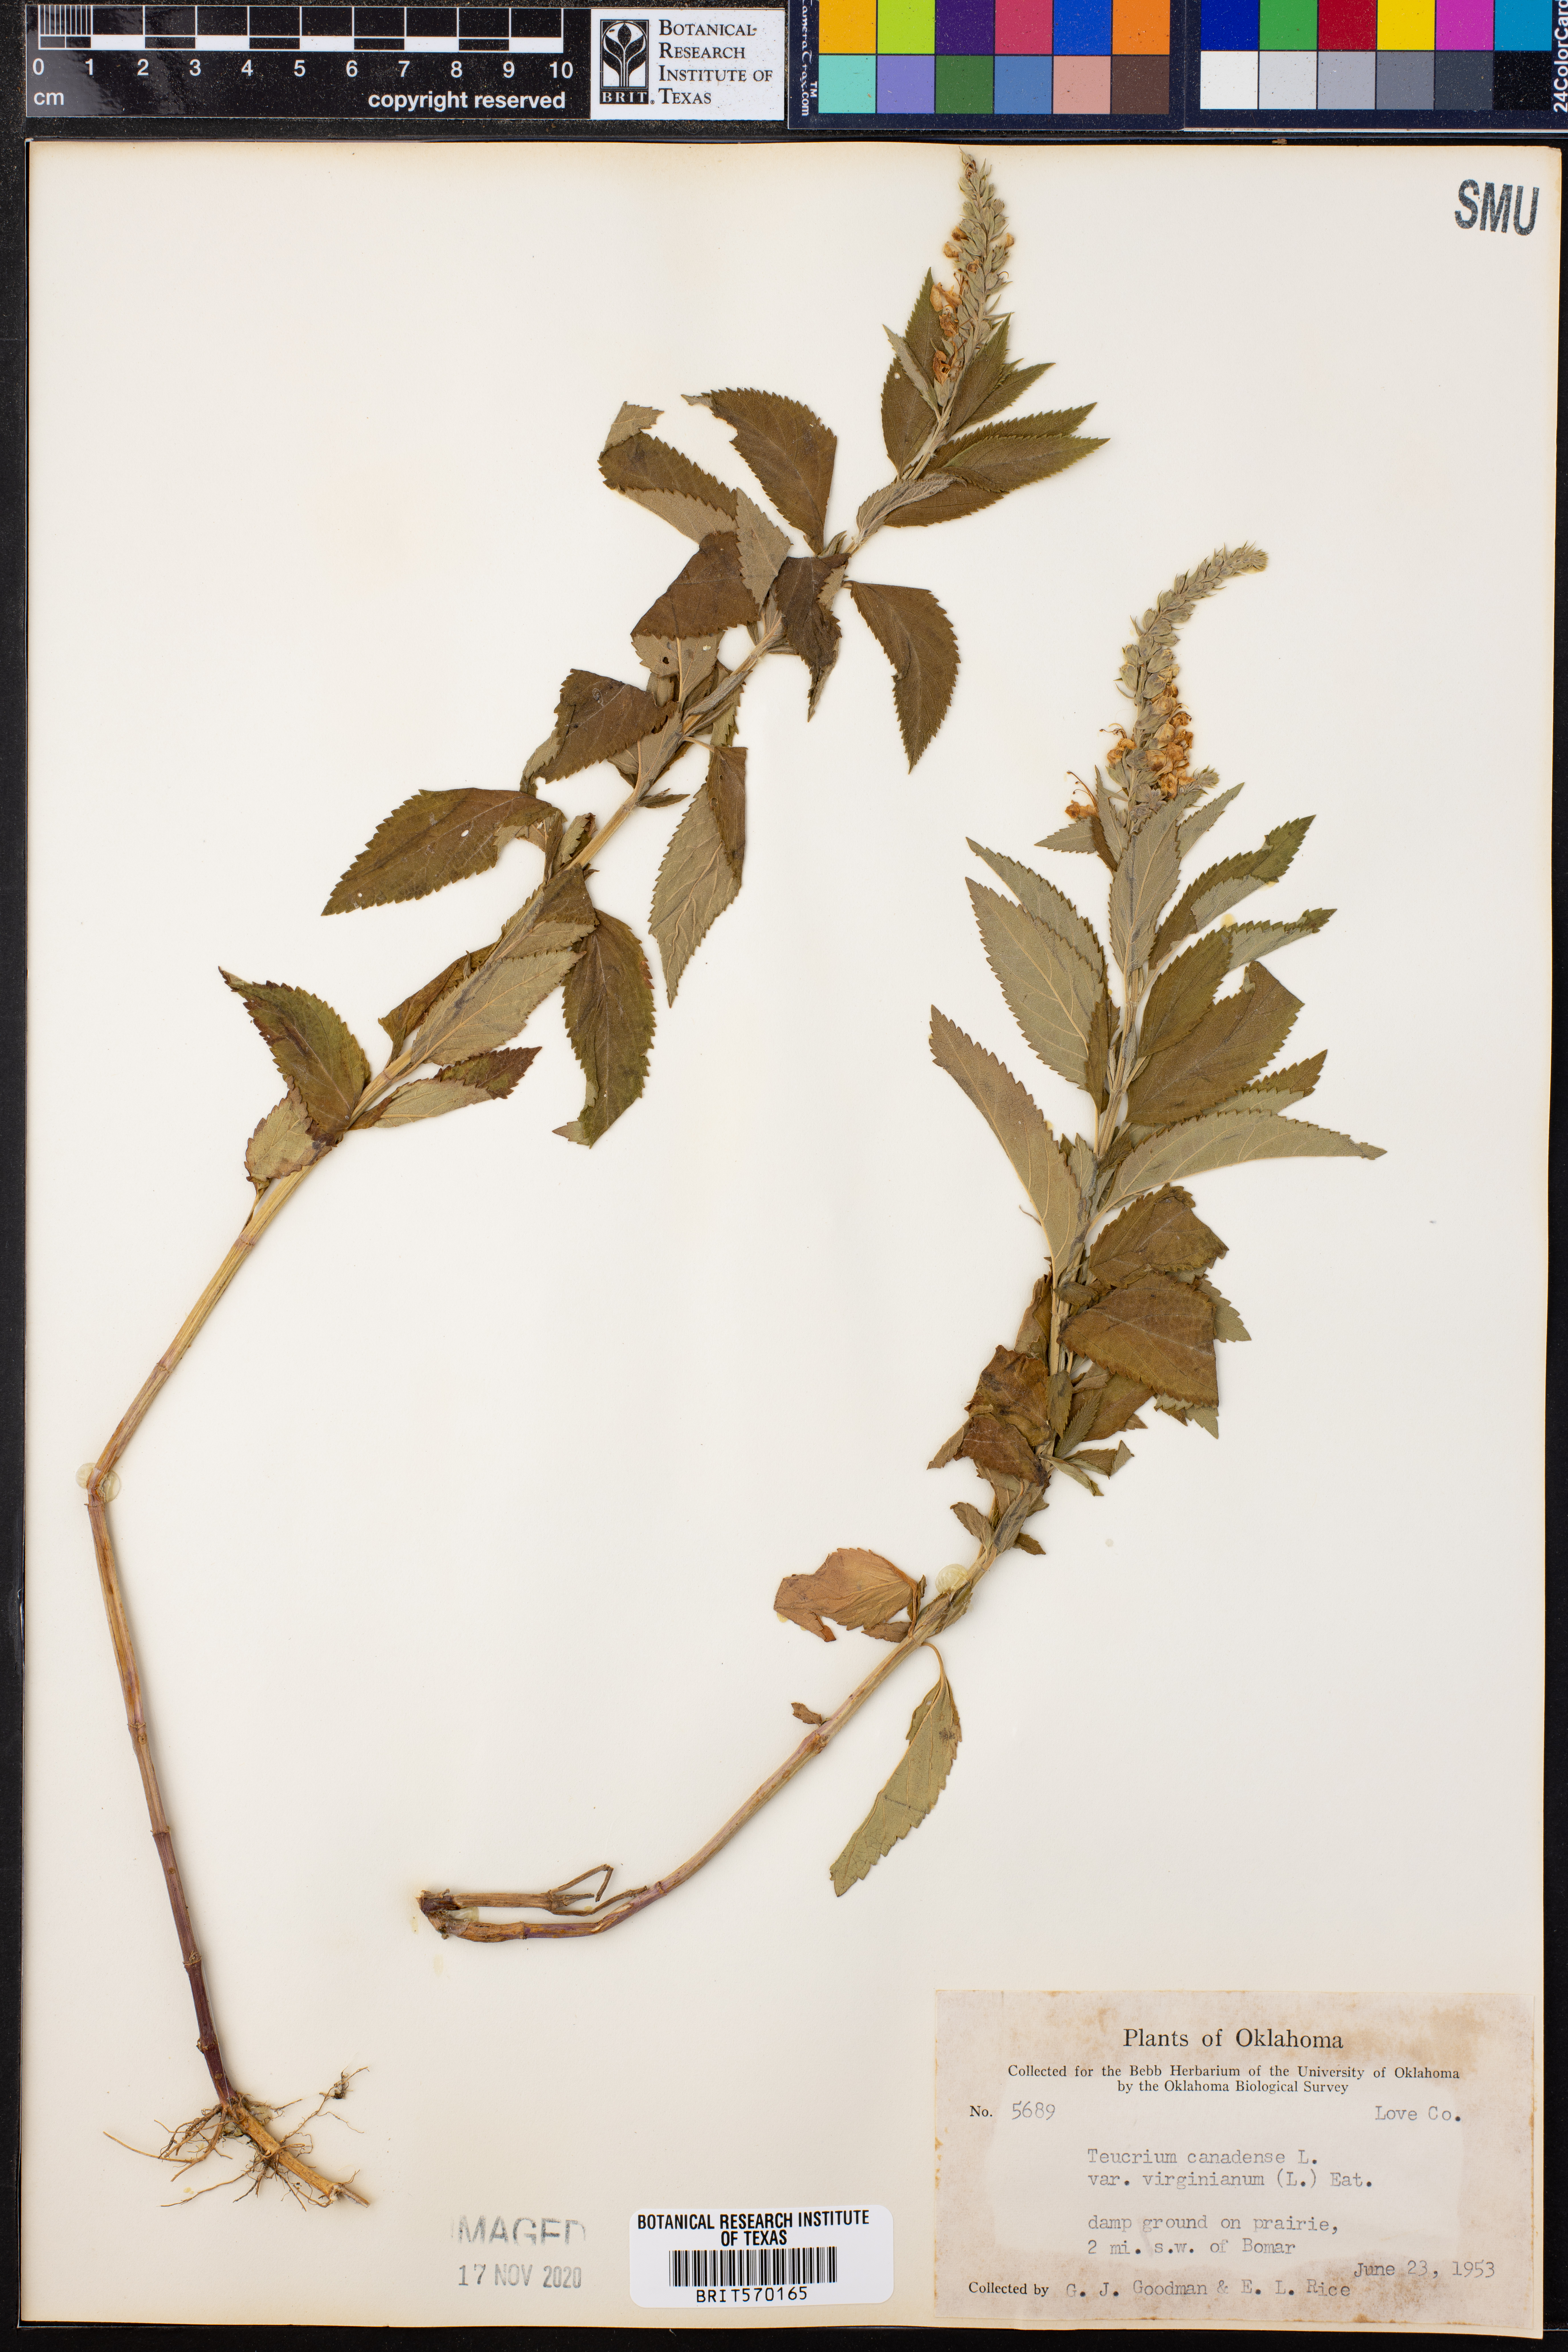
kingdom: Plantae
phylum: Tracheophyta
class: Magnoliopsida
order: Lamiales
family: Lamiaceae
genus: Teucrium
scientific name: Teucrium canadense
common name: American germander
